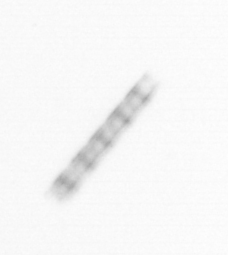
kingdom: Chromista
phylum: Ochrophyta
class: Bacillariophyceae
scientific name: Bacillariophyceae
